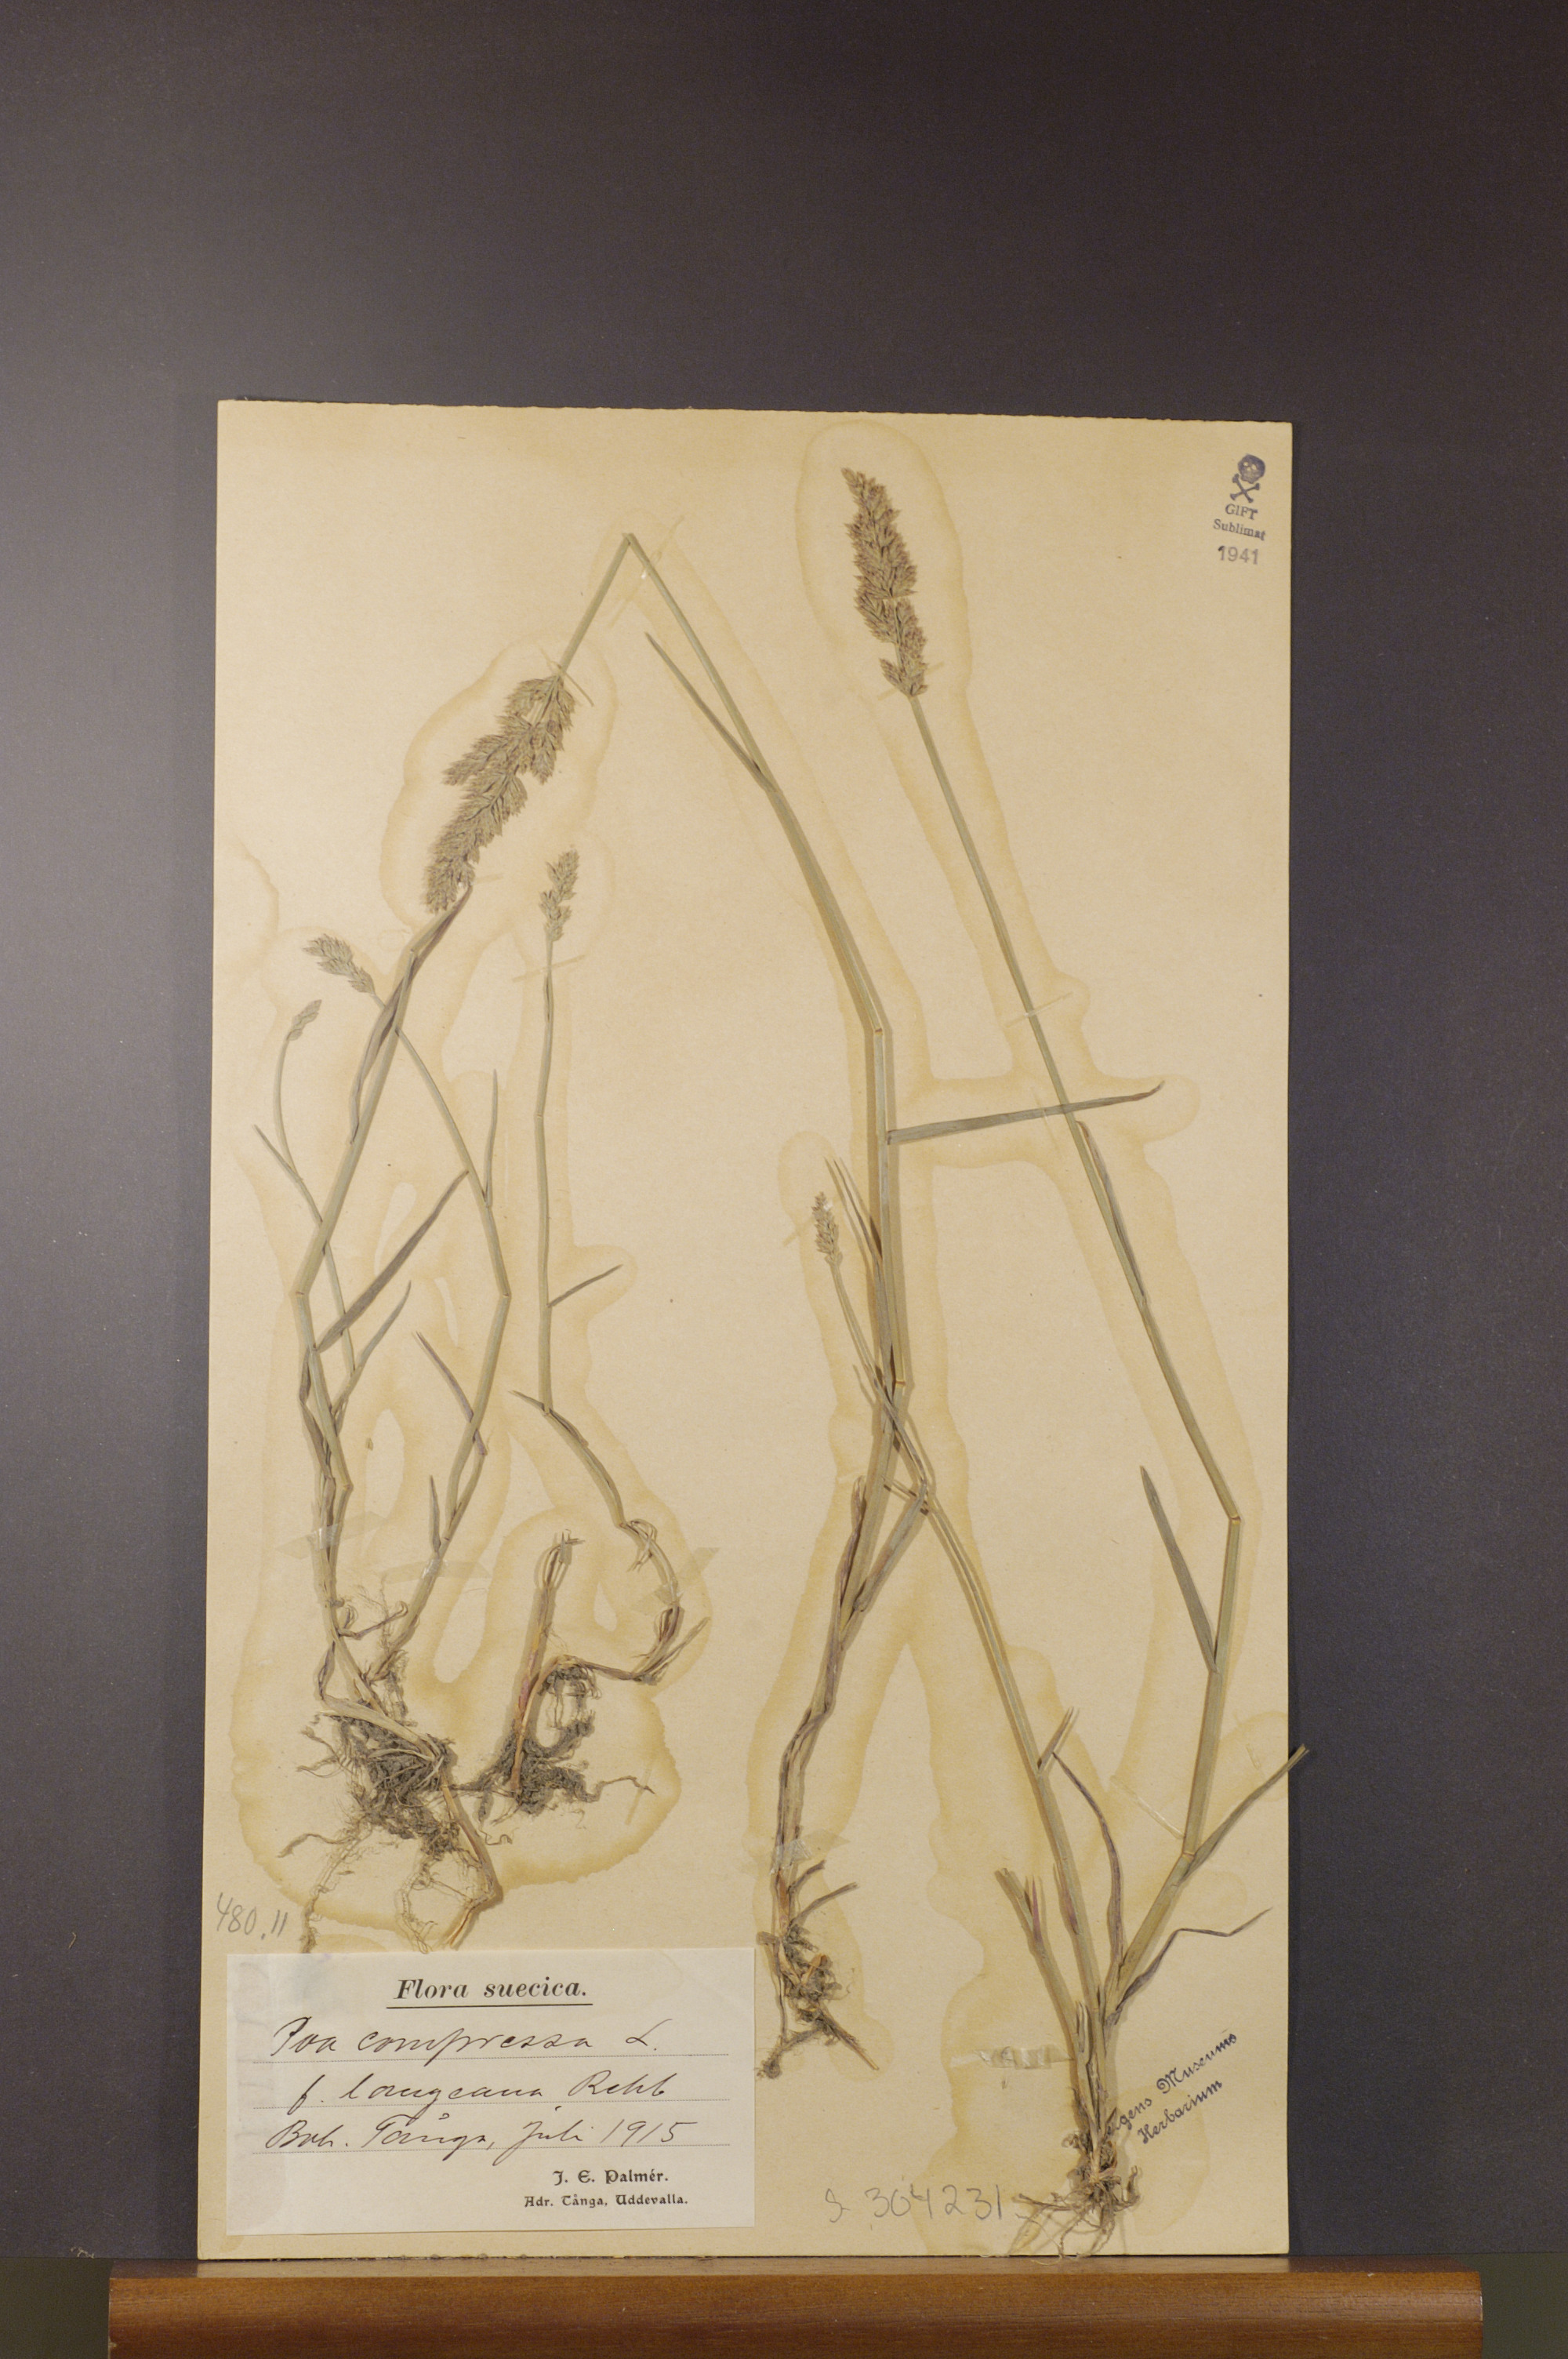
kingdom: Plantae
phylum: Tracheophyta
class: Liliopsida
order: Poales
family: Poaceae
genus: Poa
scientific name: Poa compressa
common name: Canada bluegrass
